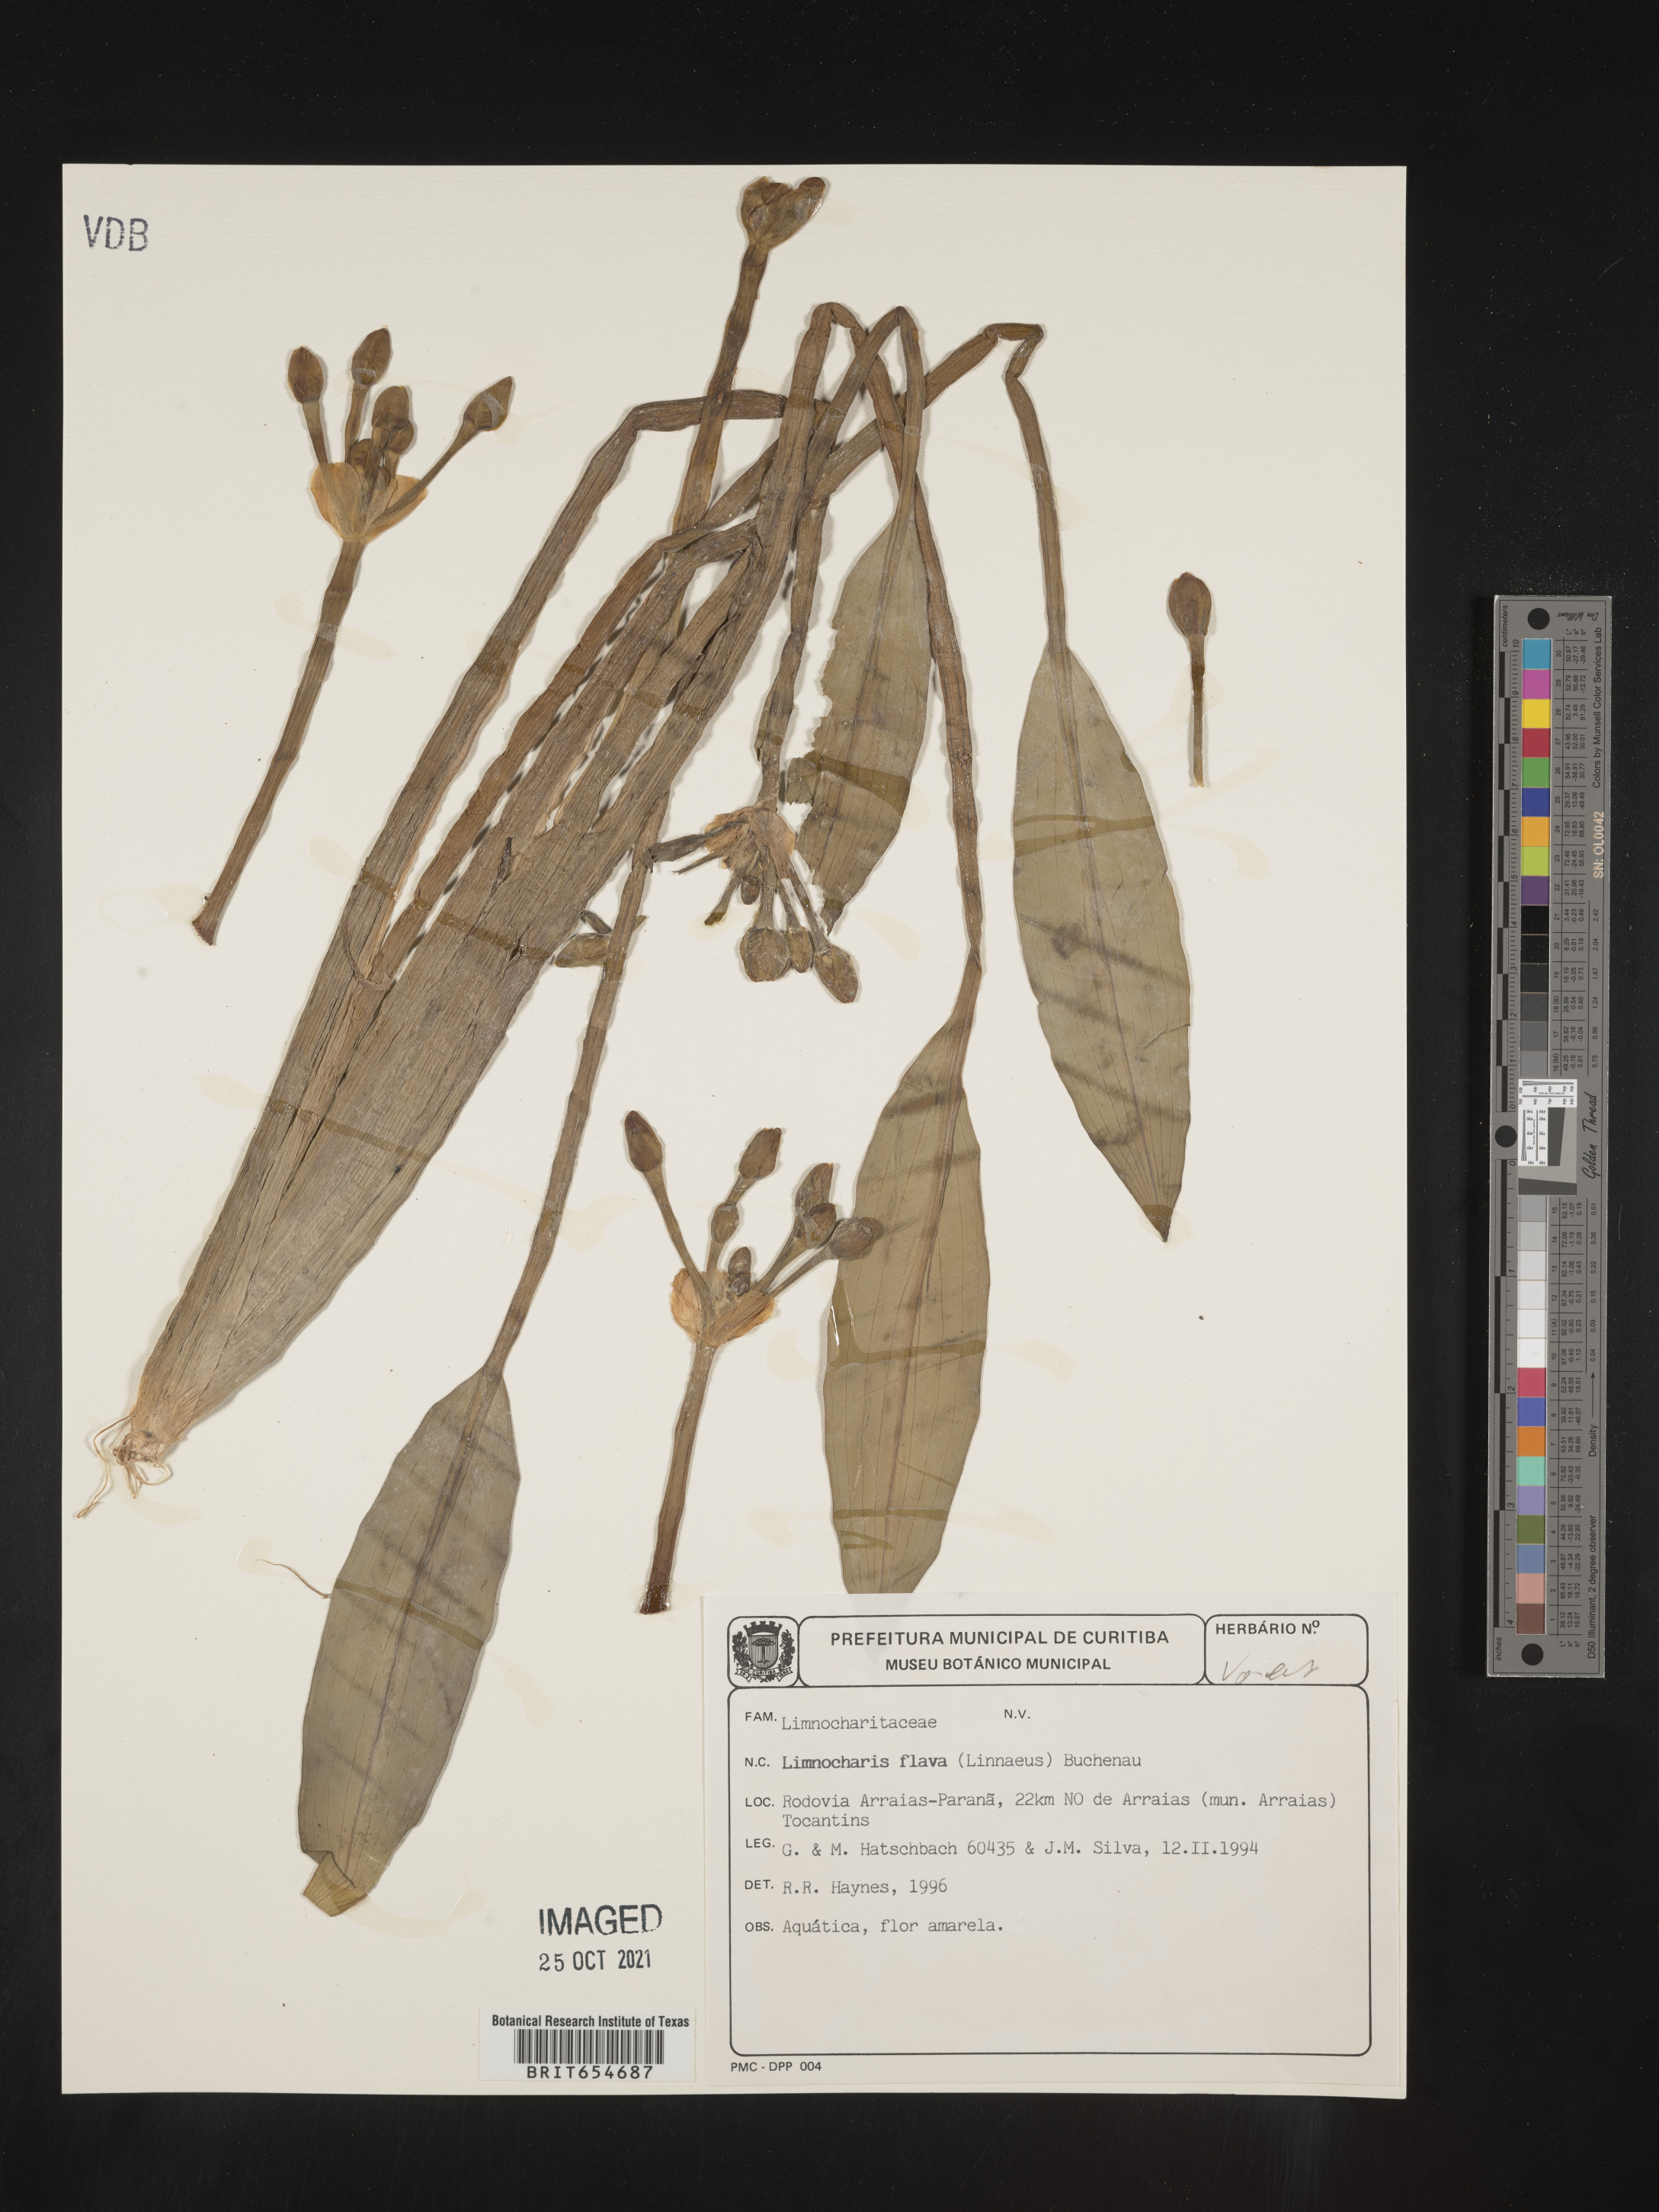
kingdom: Plantae
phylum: Tracheophyta
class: Liliopsida
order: Alismatales
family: Alismataceae
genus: Limnocharis
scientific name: Limnocharis flava
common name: Sawah-flower-rush
